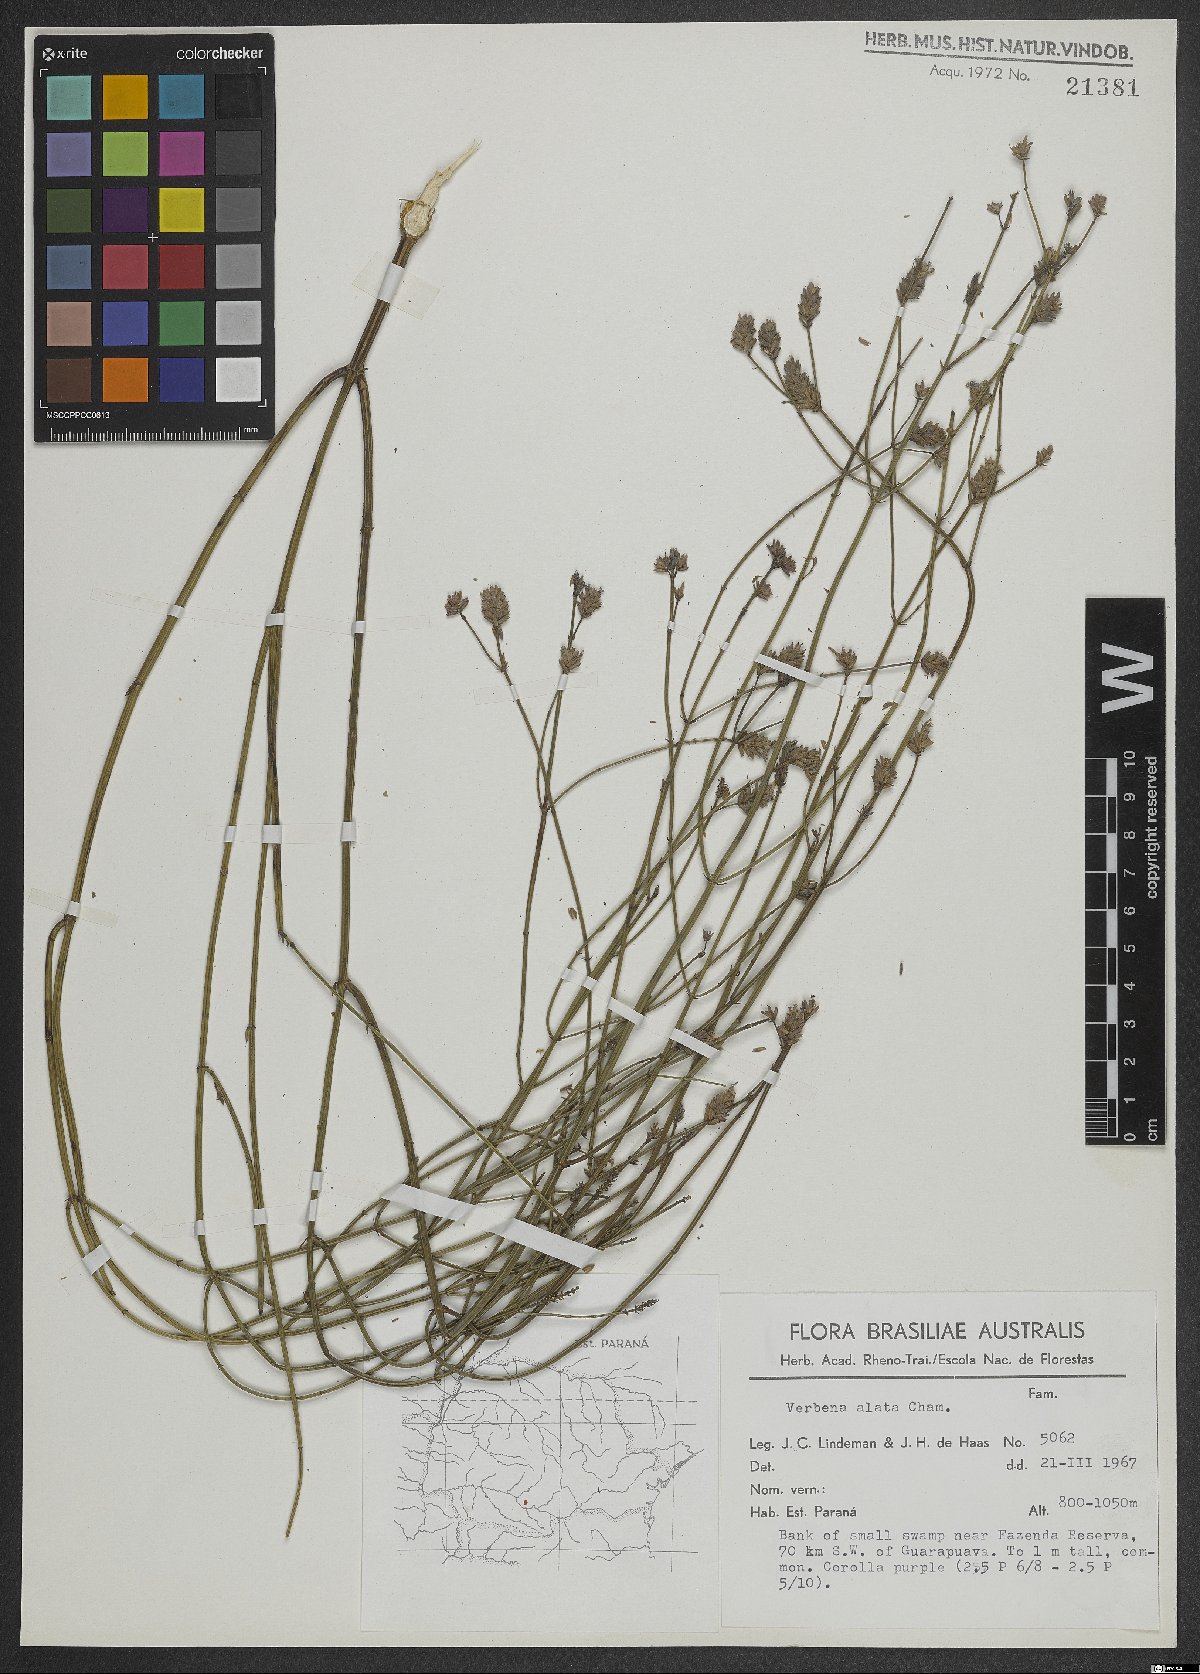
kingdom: Plantae
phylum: Tracheophyta
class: Magnoliopsida
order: Lamiales
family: Verbenaceae
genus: Verbena
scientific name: Verbena alata
